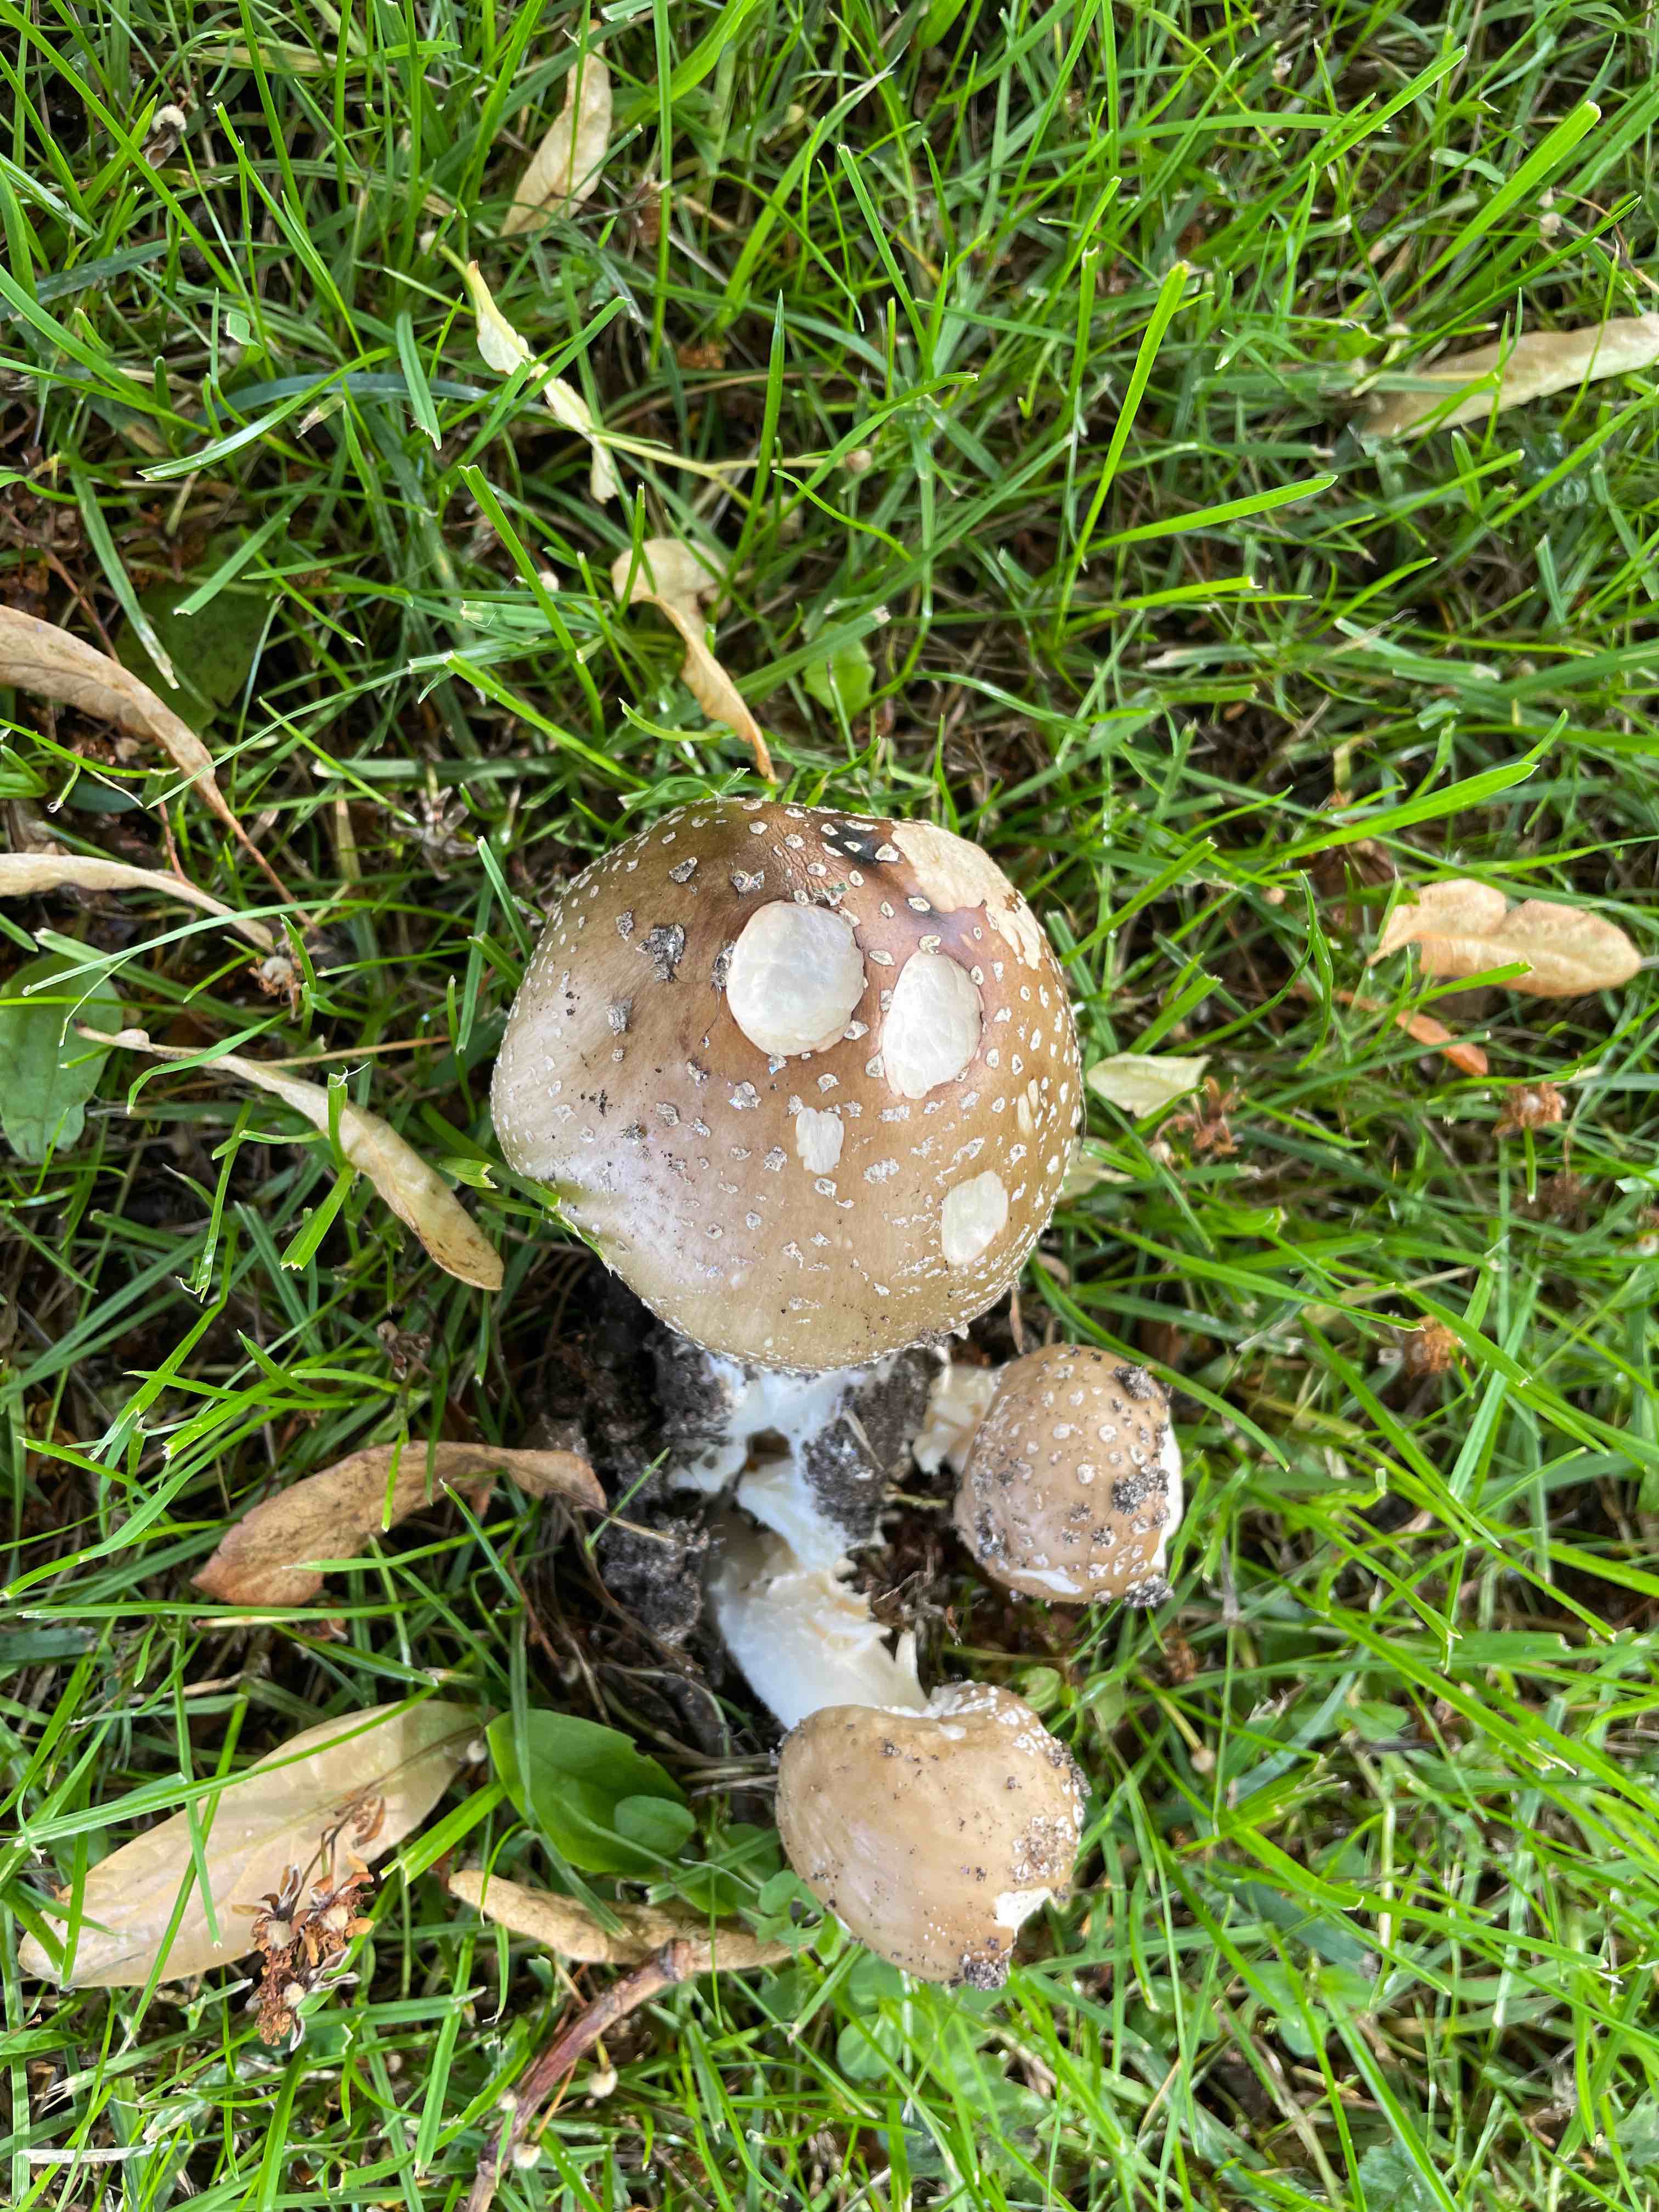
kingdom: Fungi
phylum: Basidiomycota
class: Agaricomycetes
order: Agaricales
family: Amanitaceae
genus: Amanita
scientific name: Amanita pantherina
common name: panter-fluesvamp
